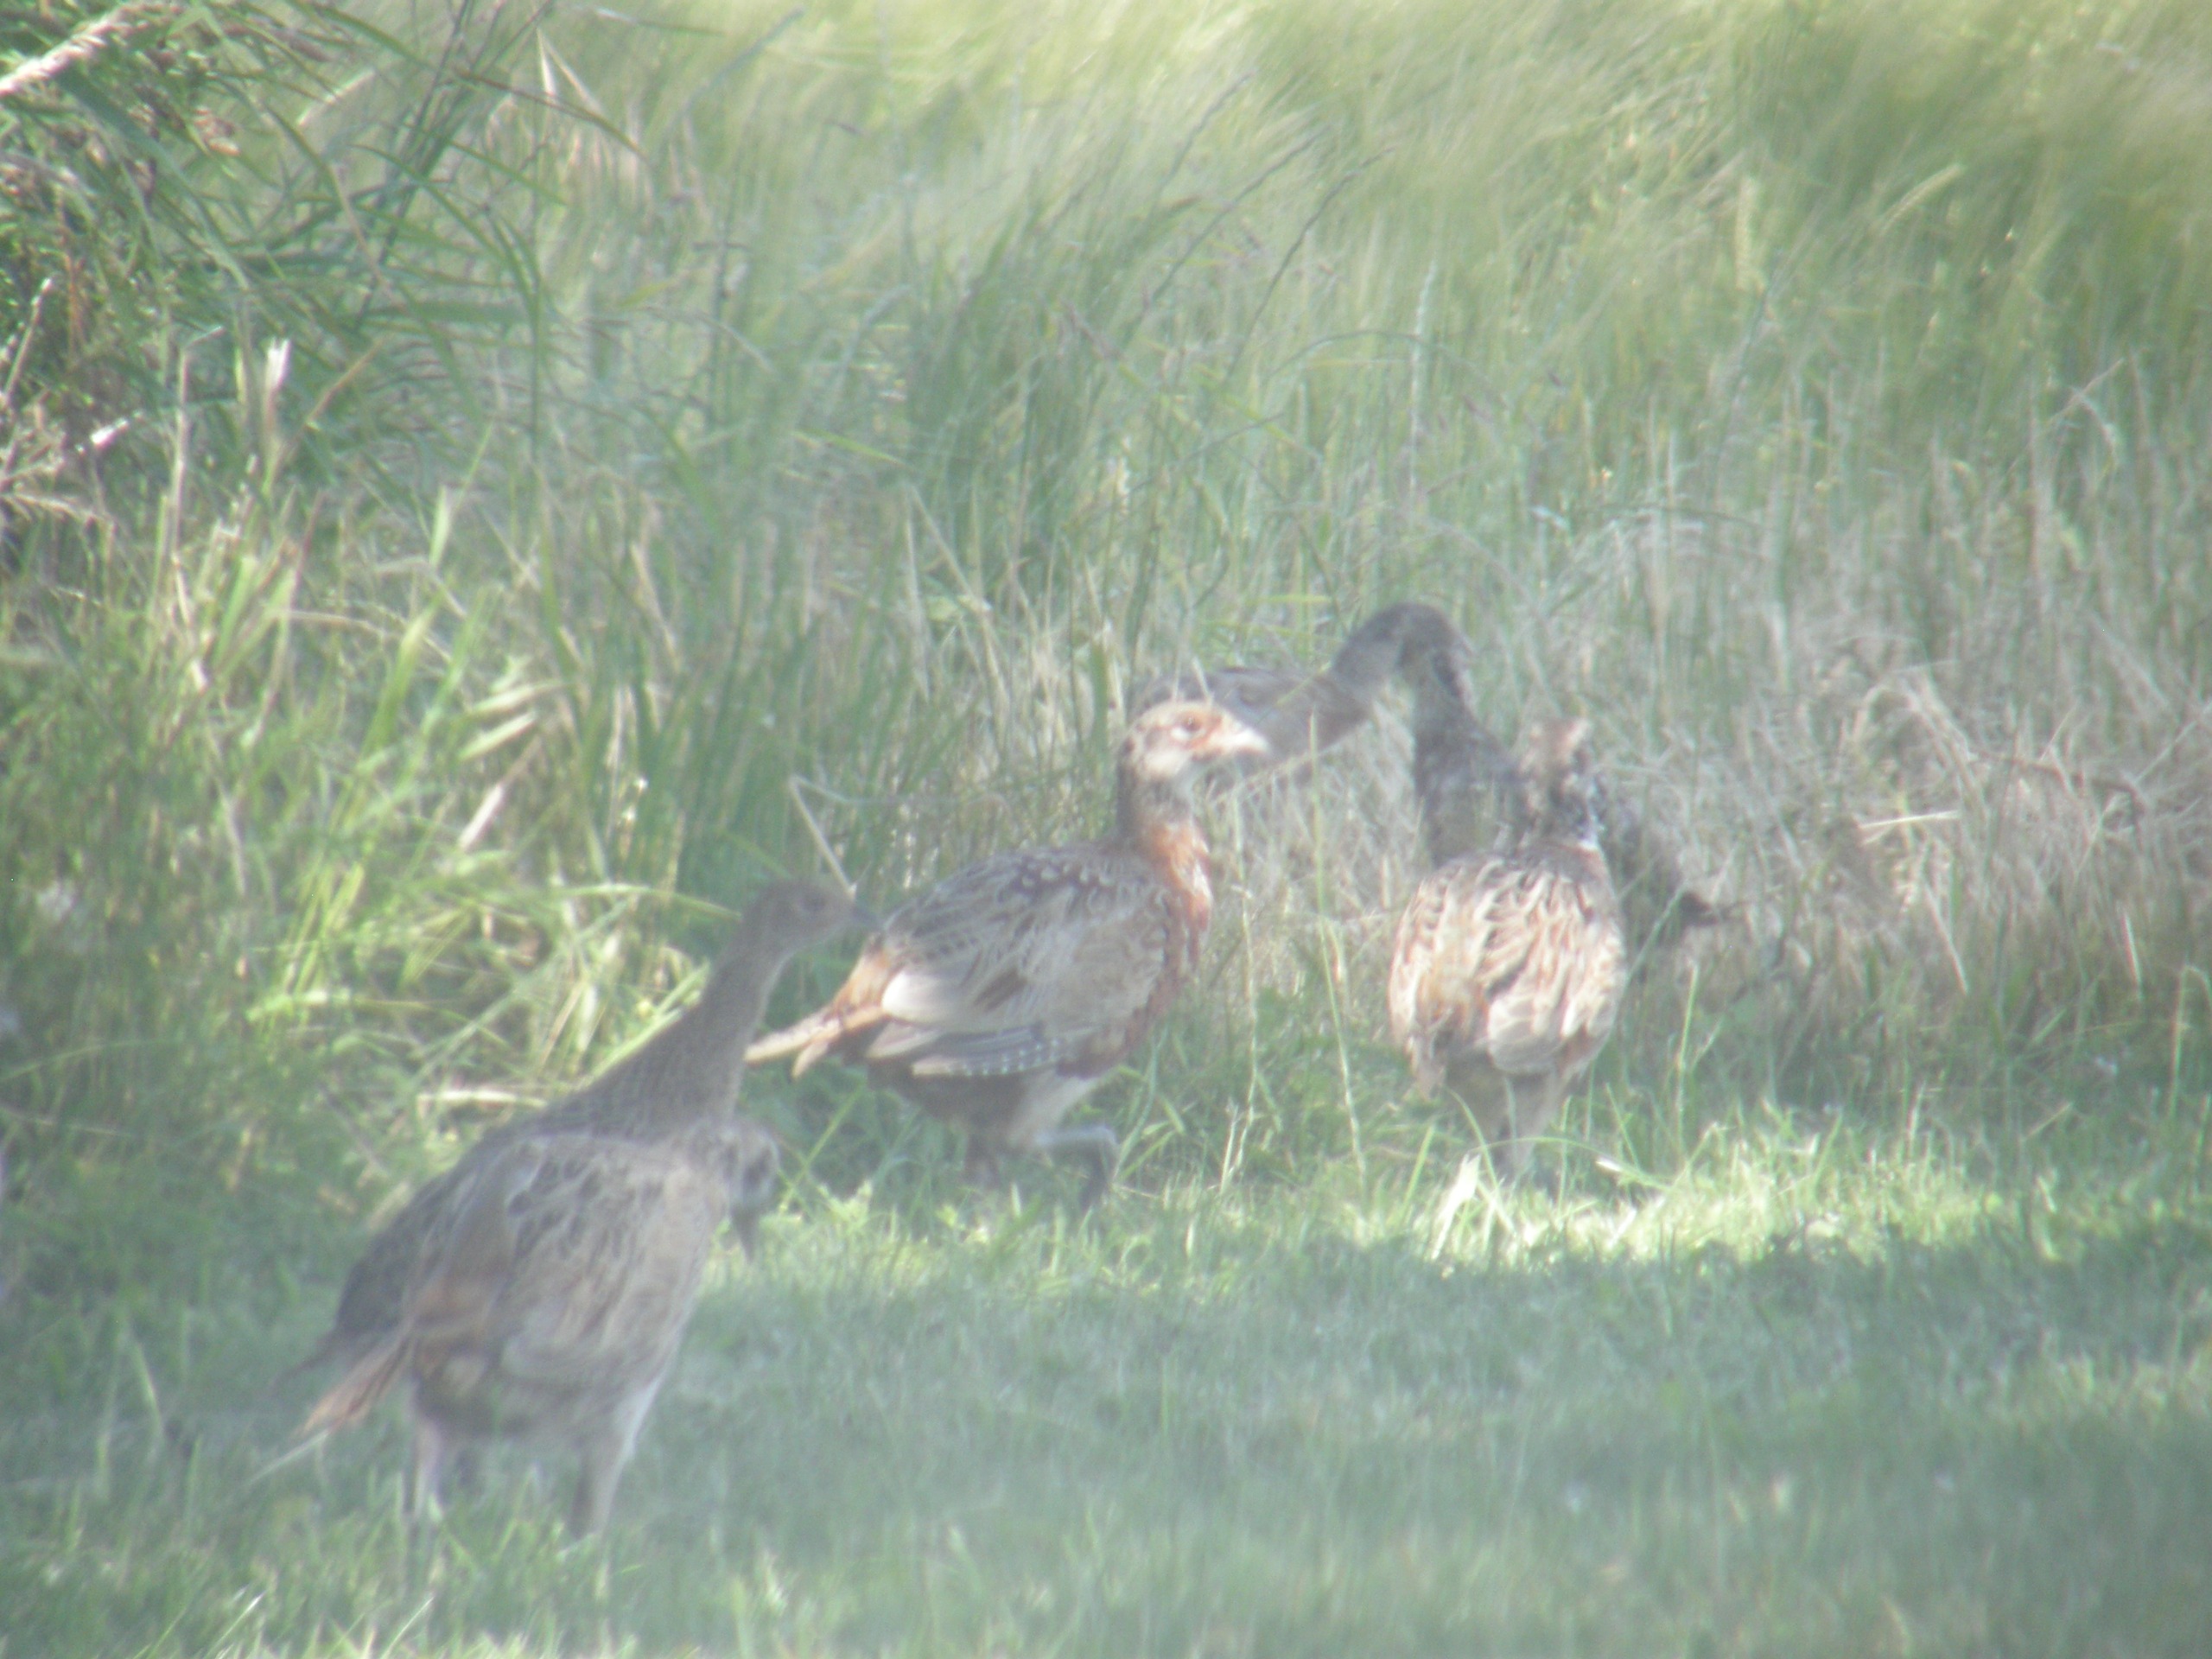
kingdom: Animalia
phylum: Chordata
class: Aves
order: Galliformes
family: Phasianidae
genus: Phasianus
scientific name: Phasianus colchicus
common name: Fasan
